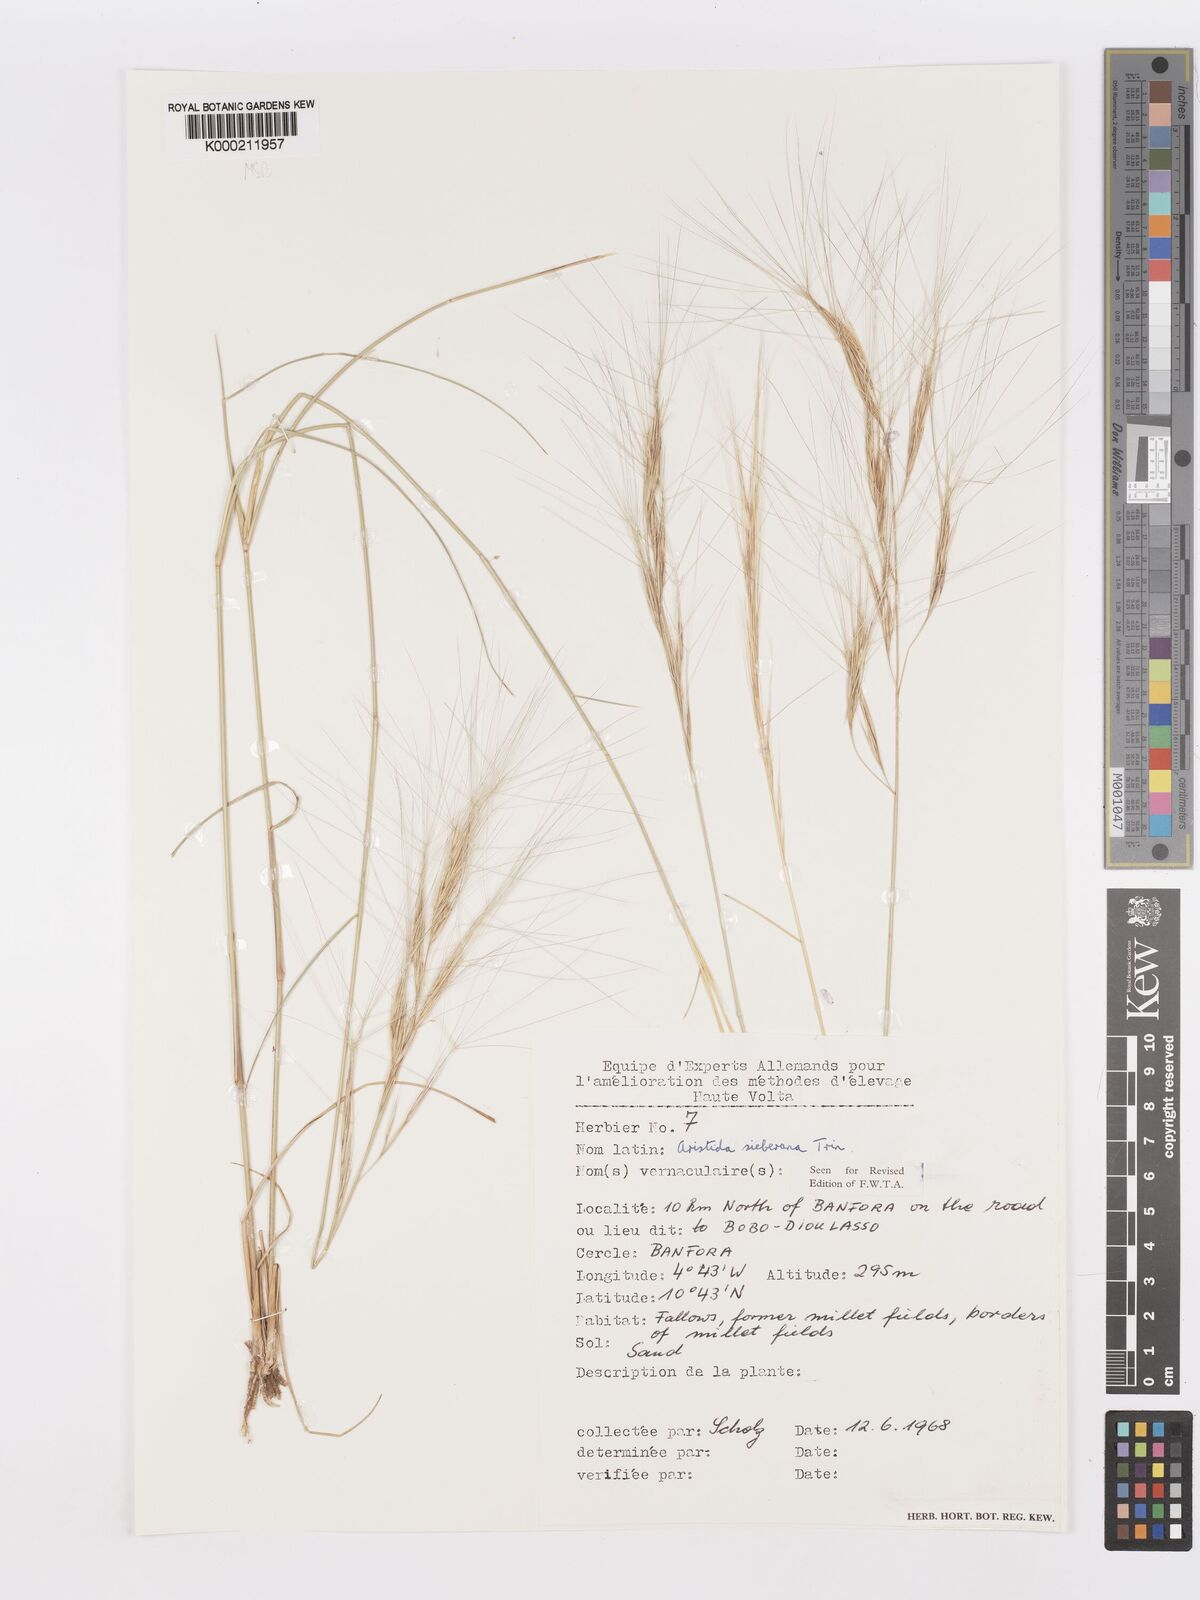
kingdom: Plantae
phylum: Tracheophyta
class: Liliopsida
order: Poales
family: Poaceae
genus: Aristida
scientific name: Aristida sieberiana
